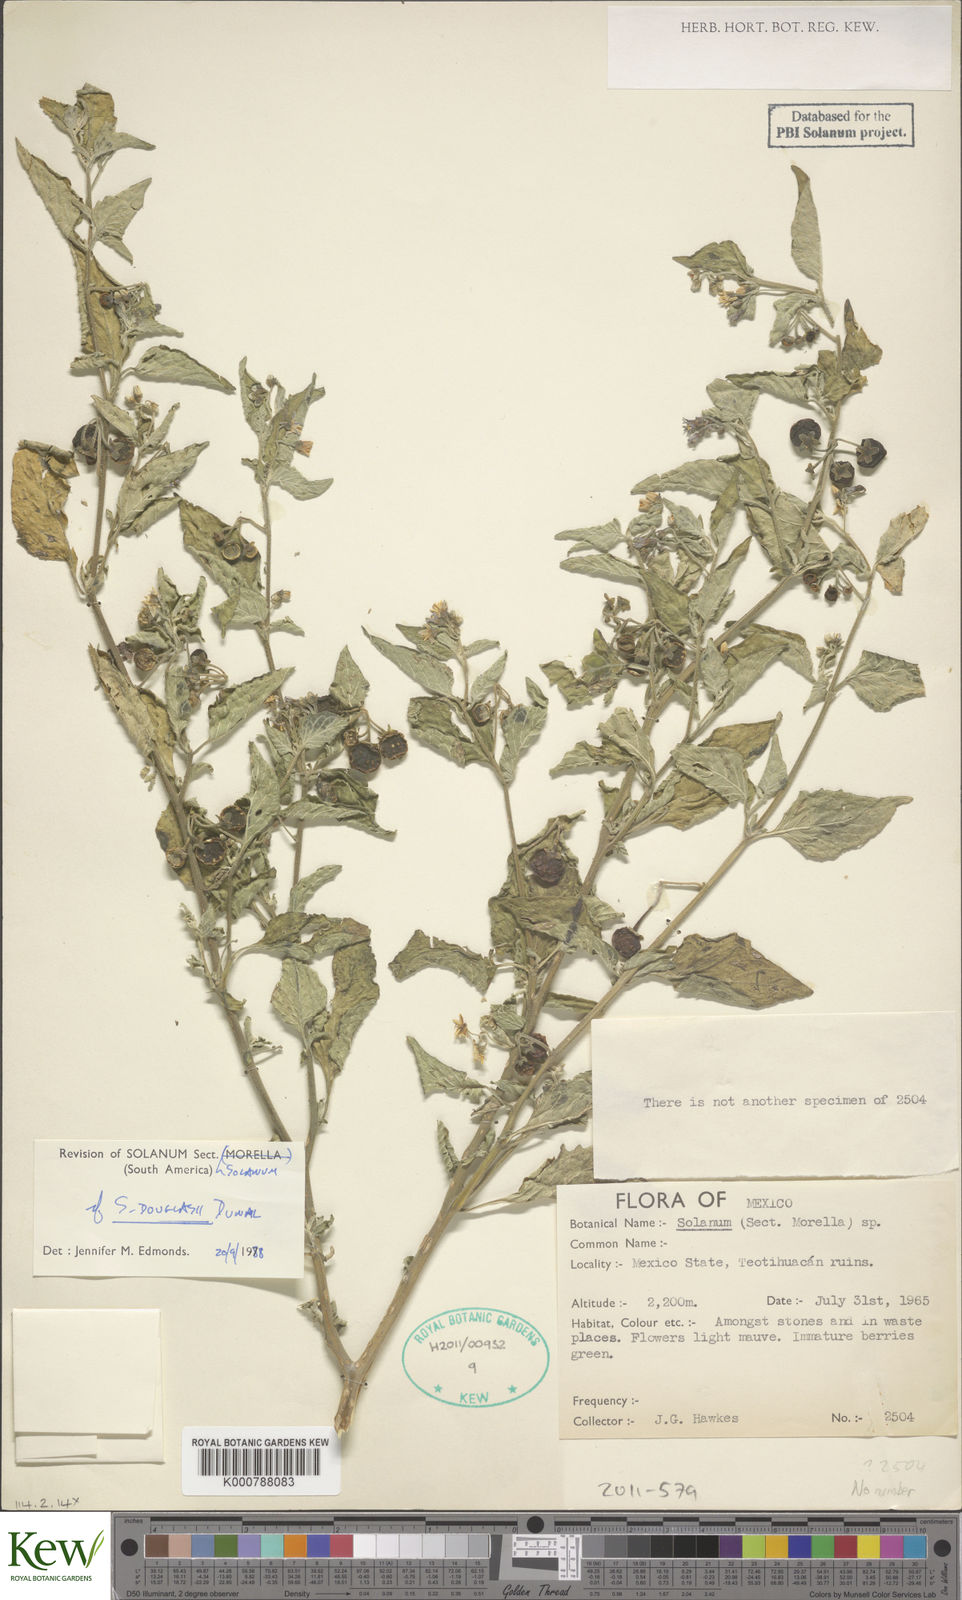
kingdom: Plantae
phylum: Tracheophyta
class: Magnoliopsida
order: Solanales
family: Solanaceae
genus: Solanum
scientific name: Solanum chenopodioides
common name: Tall nightshade
